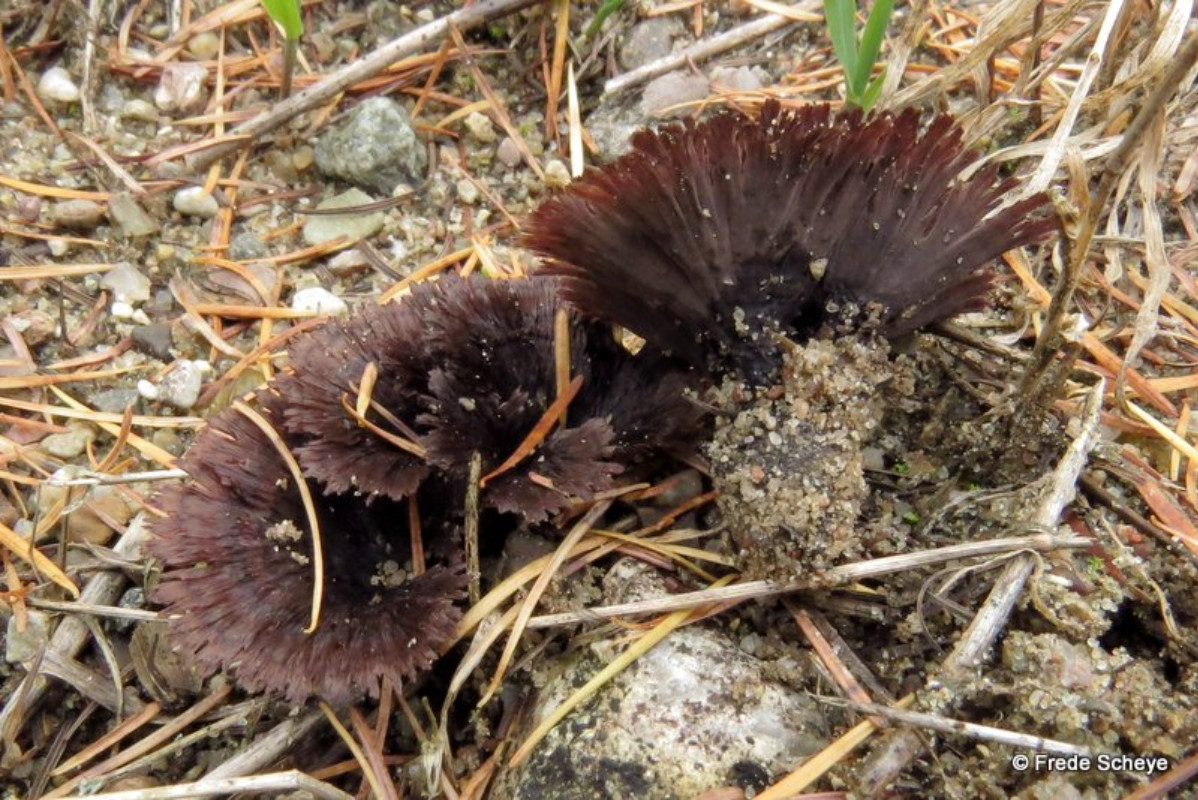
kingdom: Fungi
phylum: Basidiomycota
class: Agaricomycetes
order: Thelephorales
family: Thelephoraceae
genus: Thelephora
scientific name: Thelephora caryophyllea
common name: tragt-frynsesvamp
